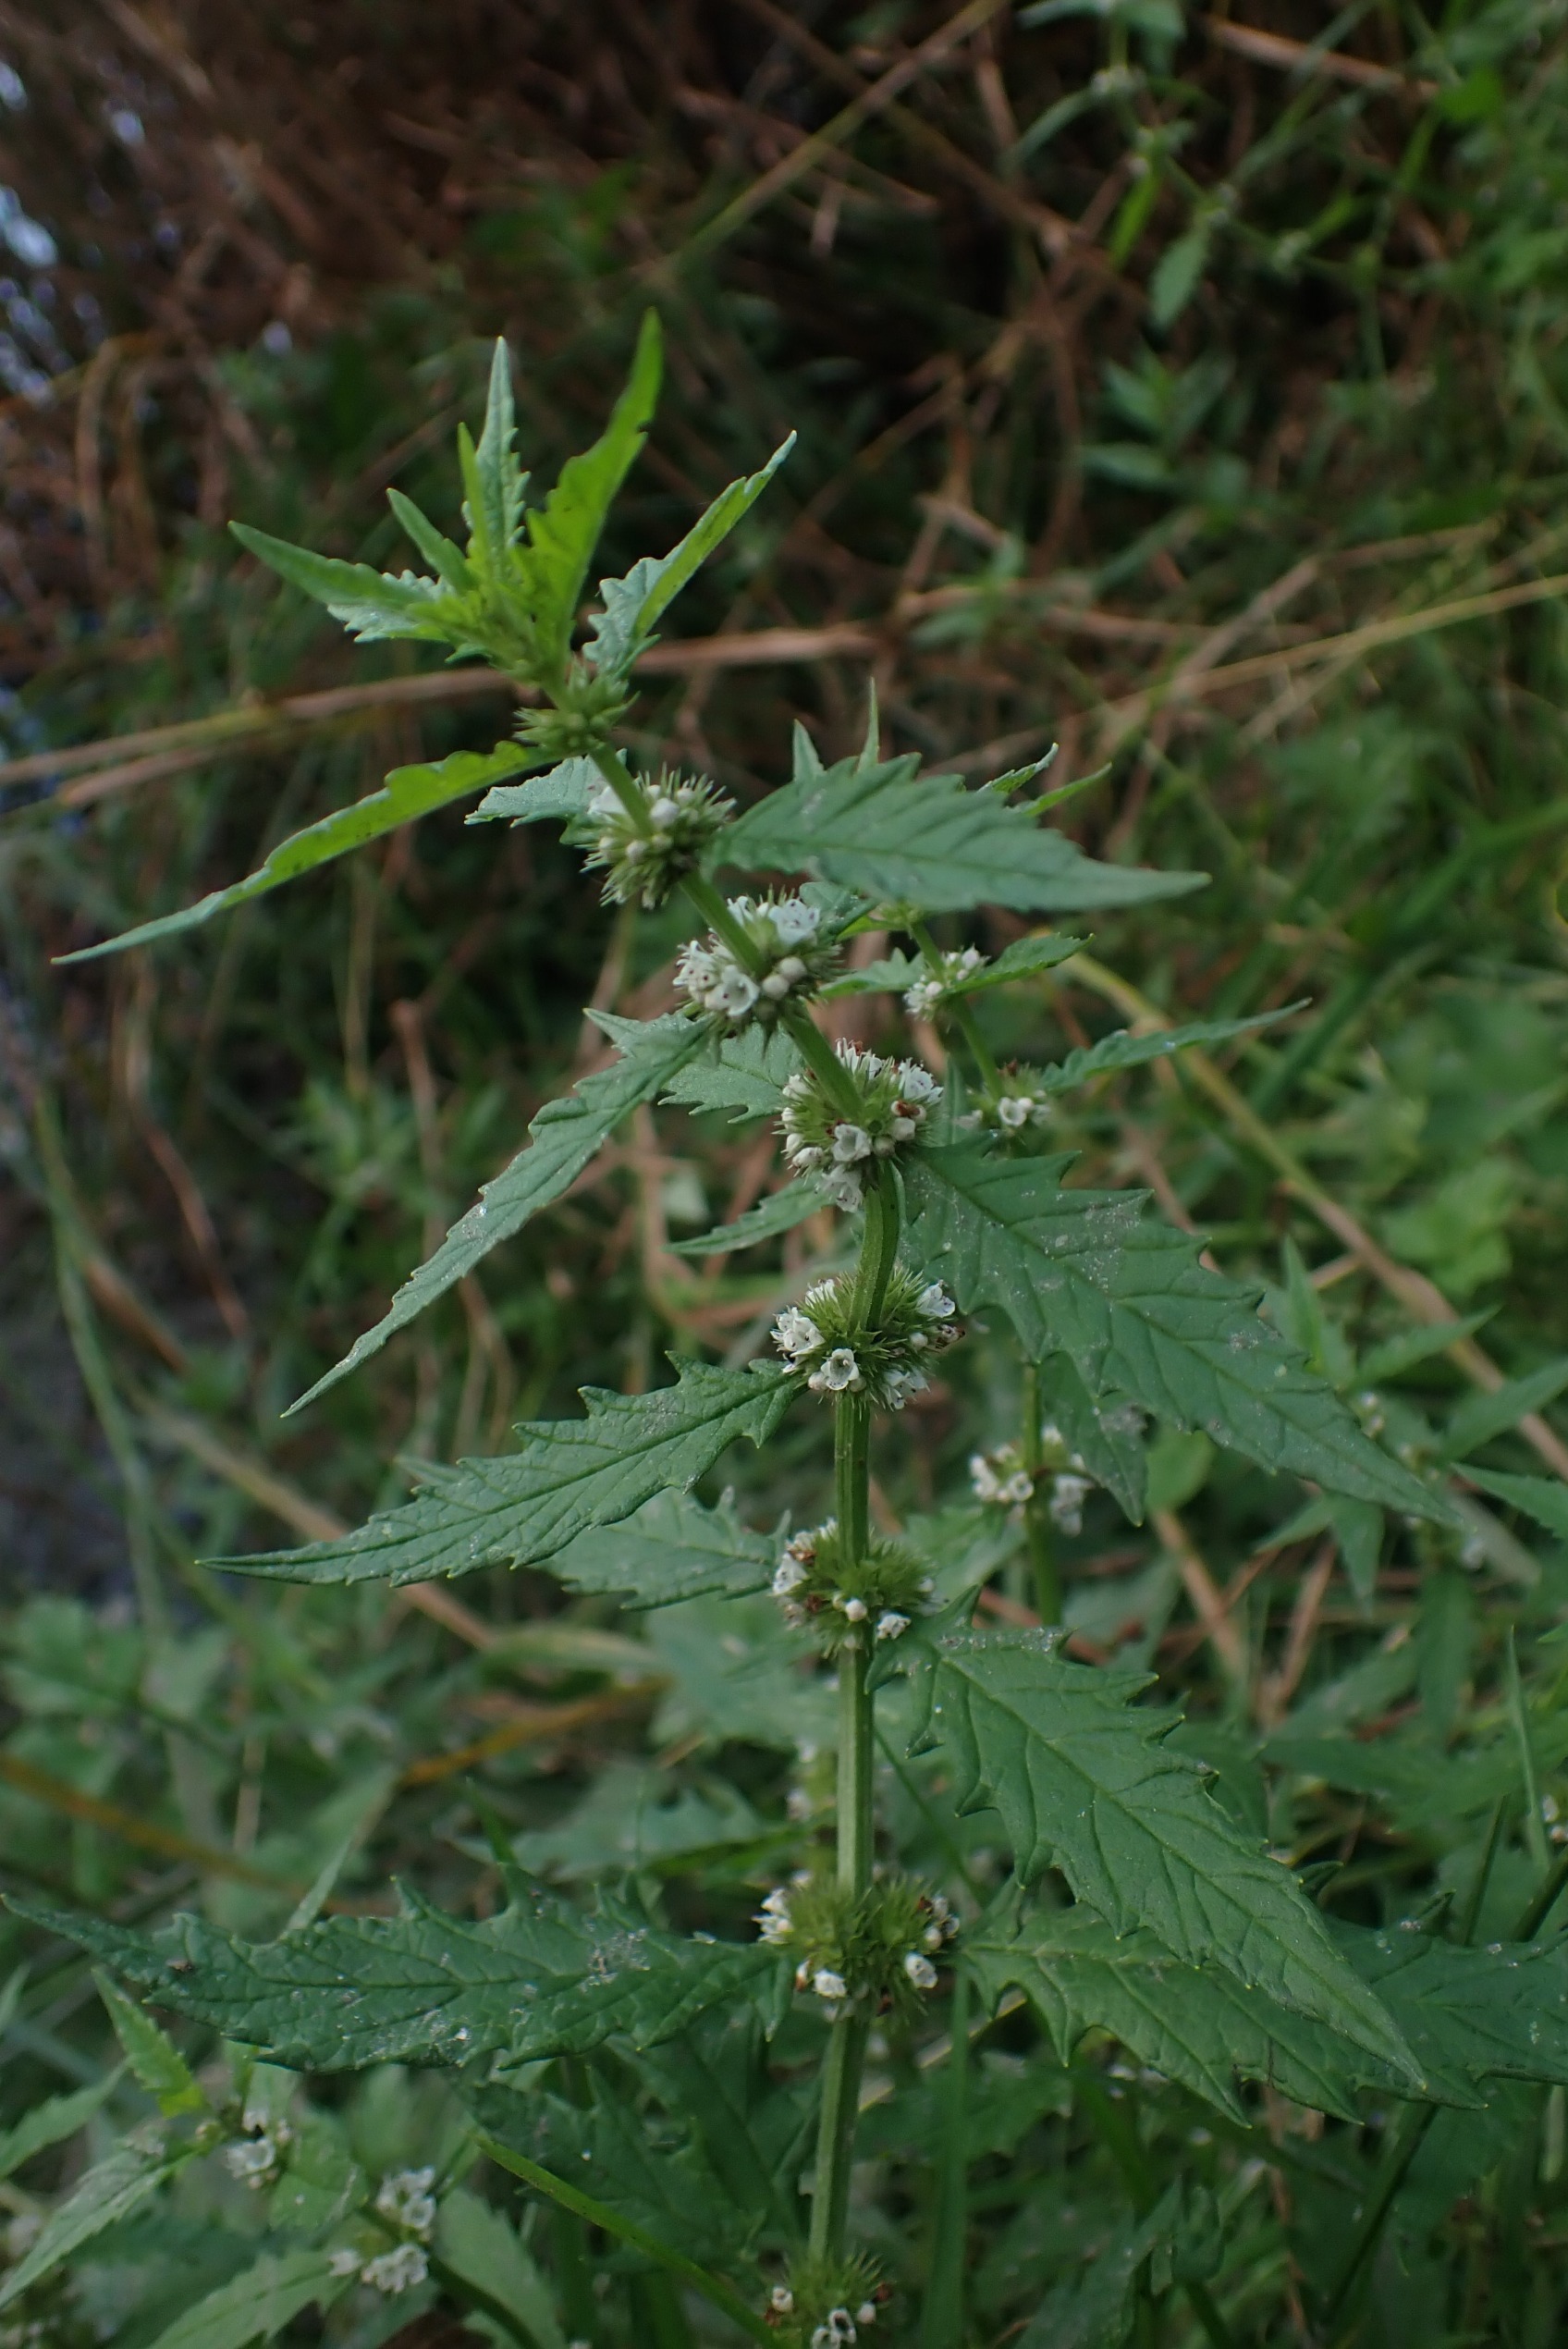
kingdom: Plantae
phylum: Tracheophyta
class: Magnoliopsida
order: Lamiales
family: Lamiaceae
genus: Lycopus
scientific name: Lycopus europaeus
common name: Sværtevæld
